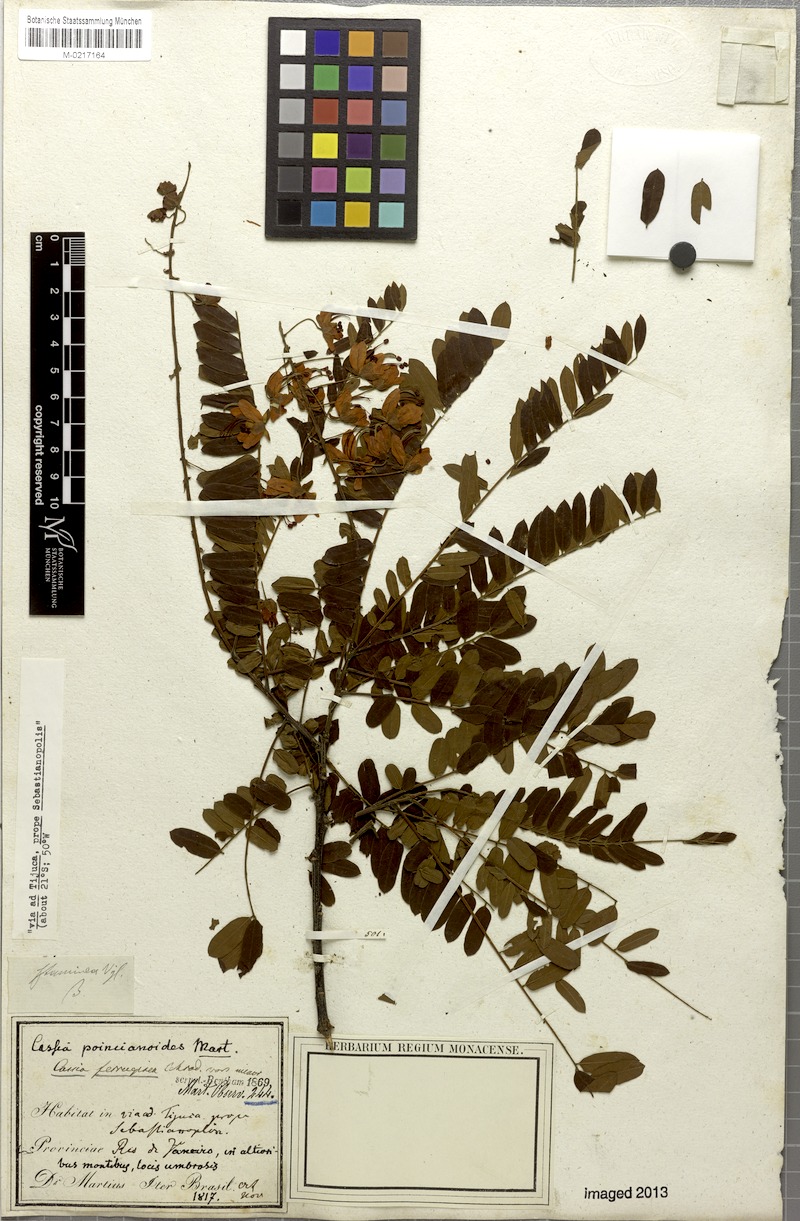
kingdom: Plantae
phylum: Tracheophyta
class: Magnoliopsida
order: Fabales
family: Fabaceae
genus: Cassia
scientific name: Cassia ferruginea
